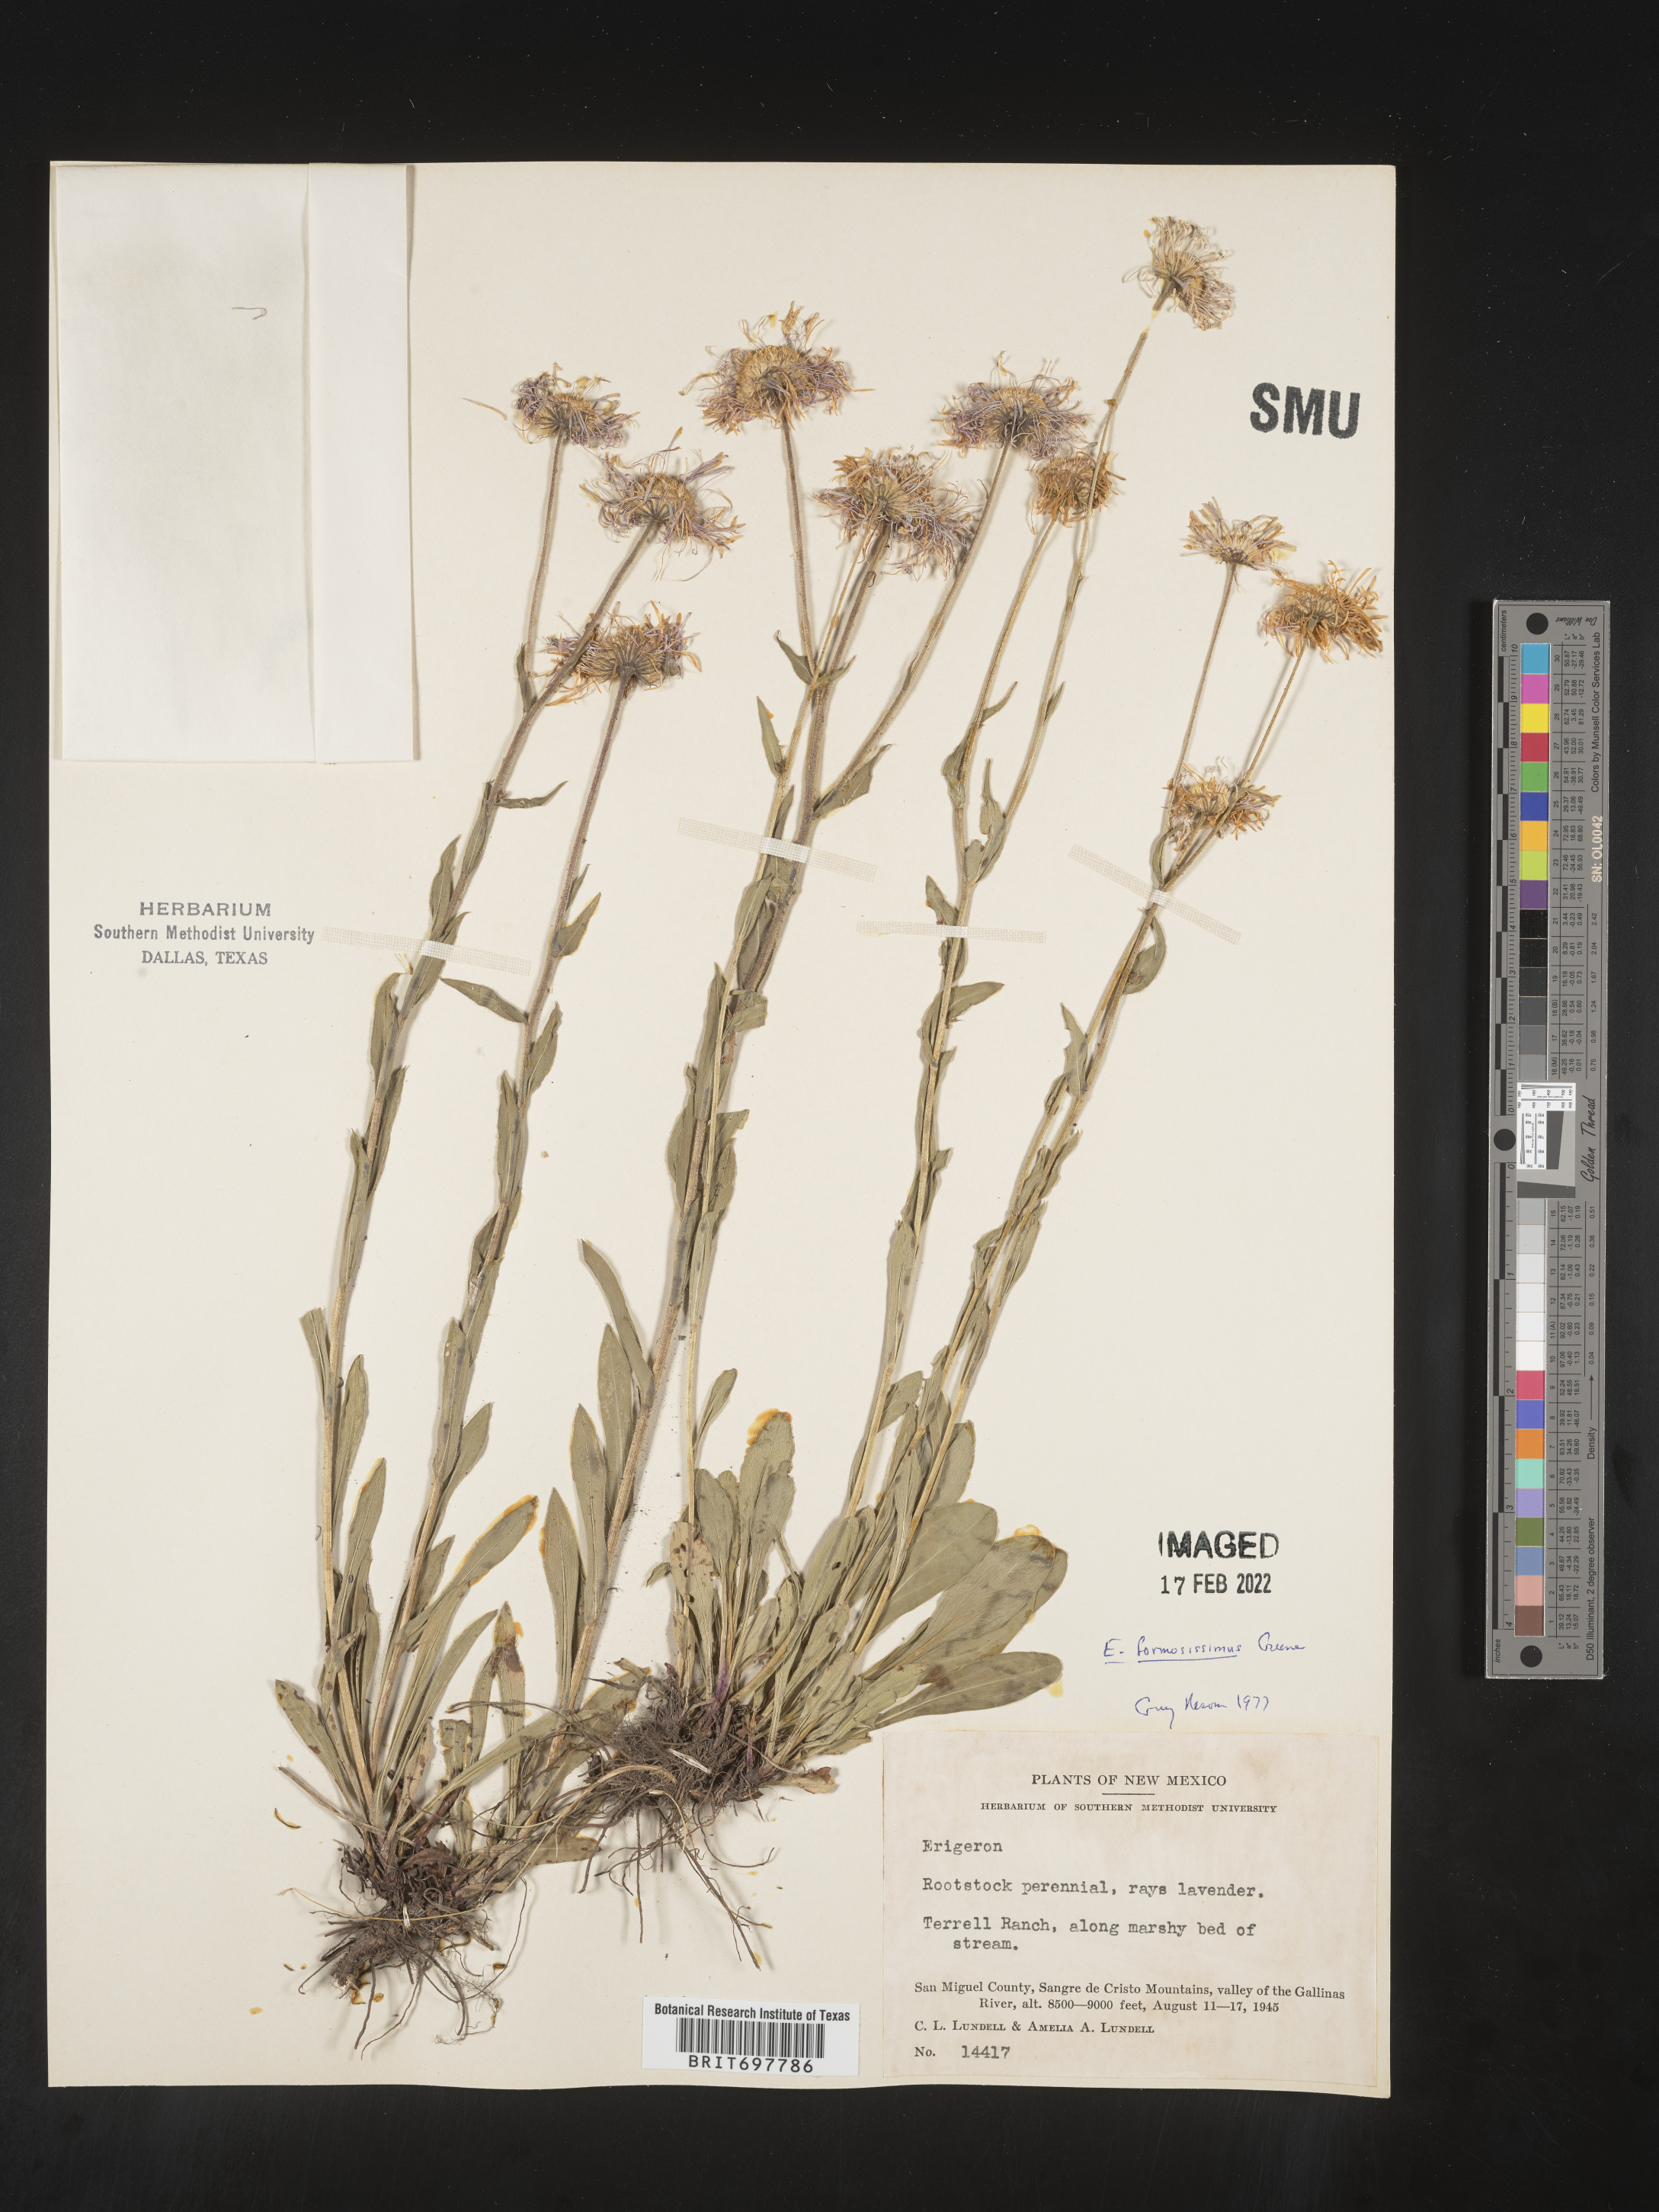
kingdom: Plantae
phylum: Tracheophyta
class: Magnoliopsida
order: Asterales
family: Asteraceae
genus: Erigeron
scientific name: Erigeron formosissimus
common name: Beautiful fleabane
